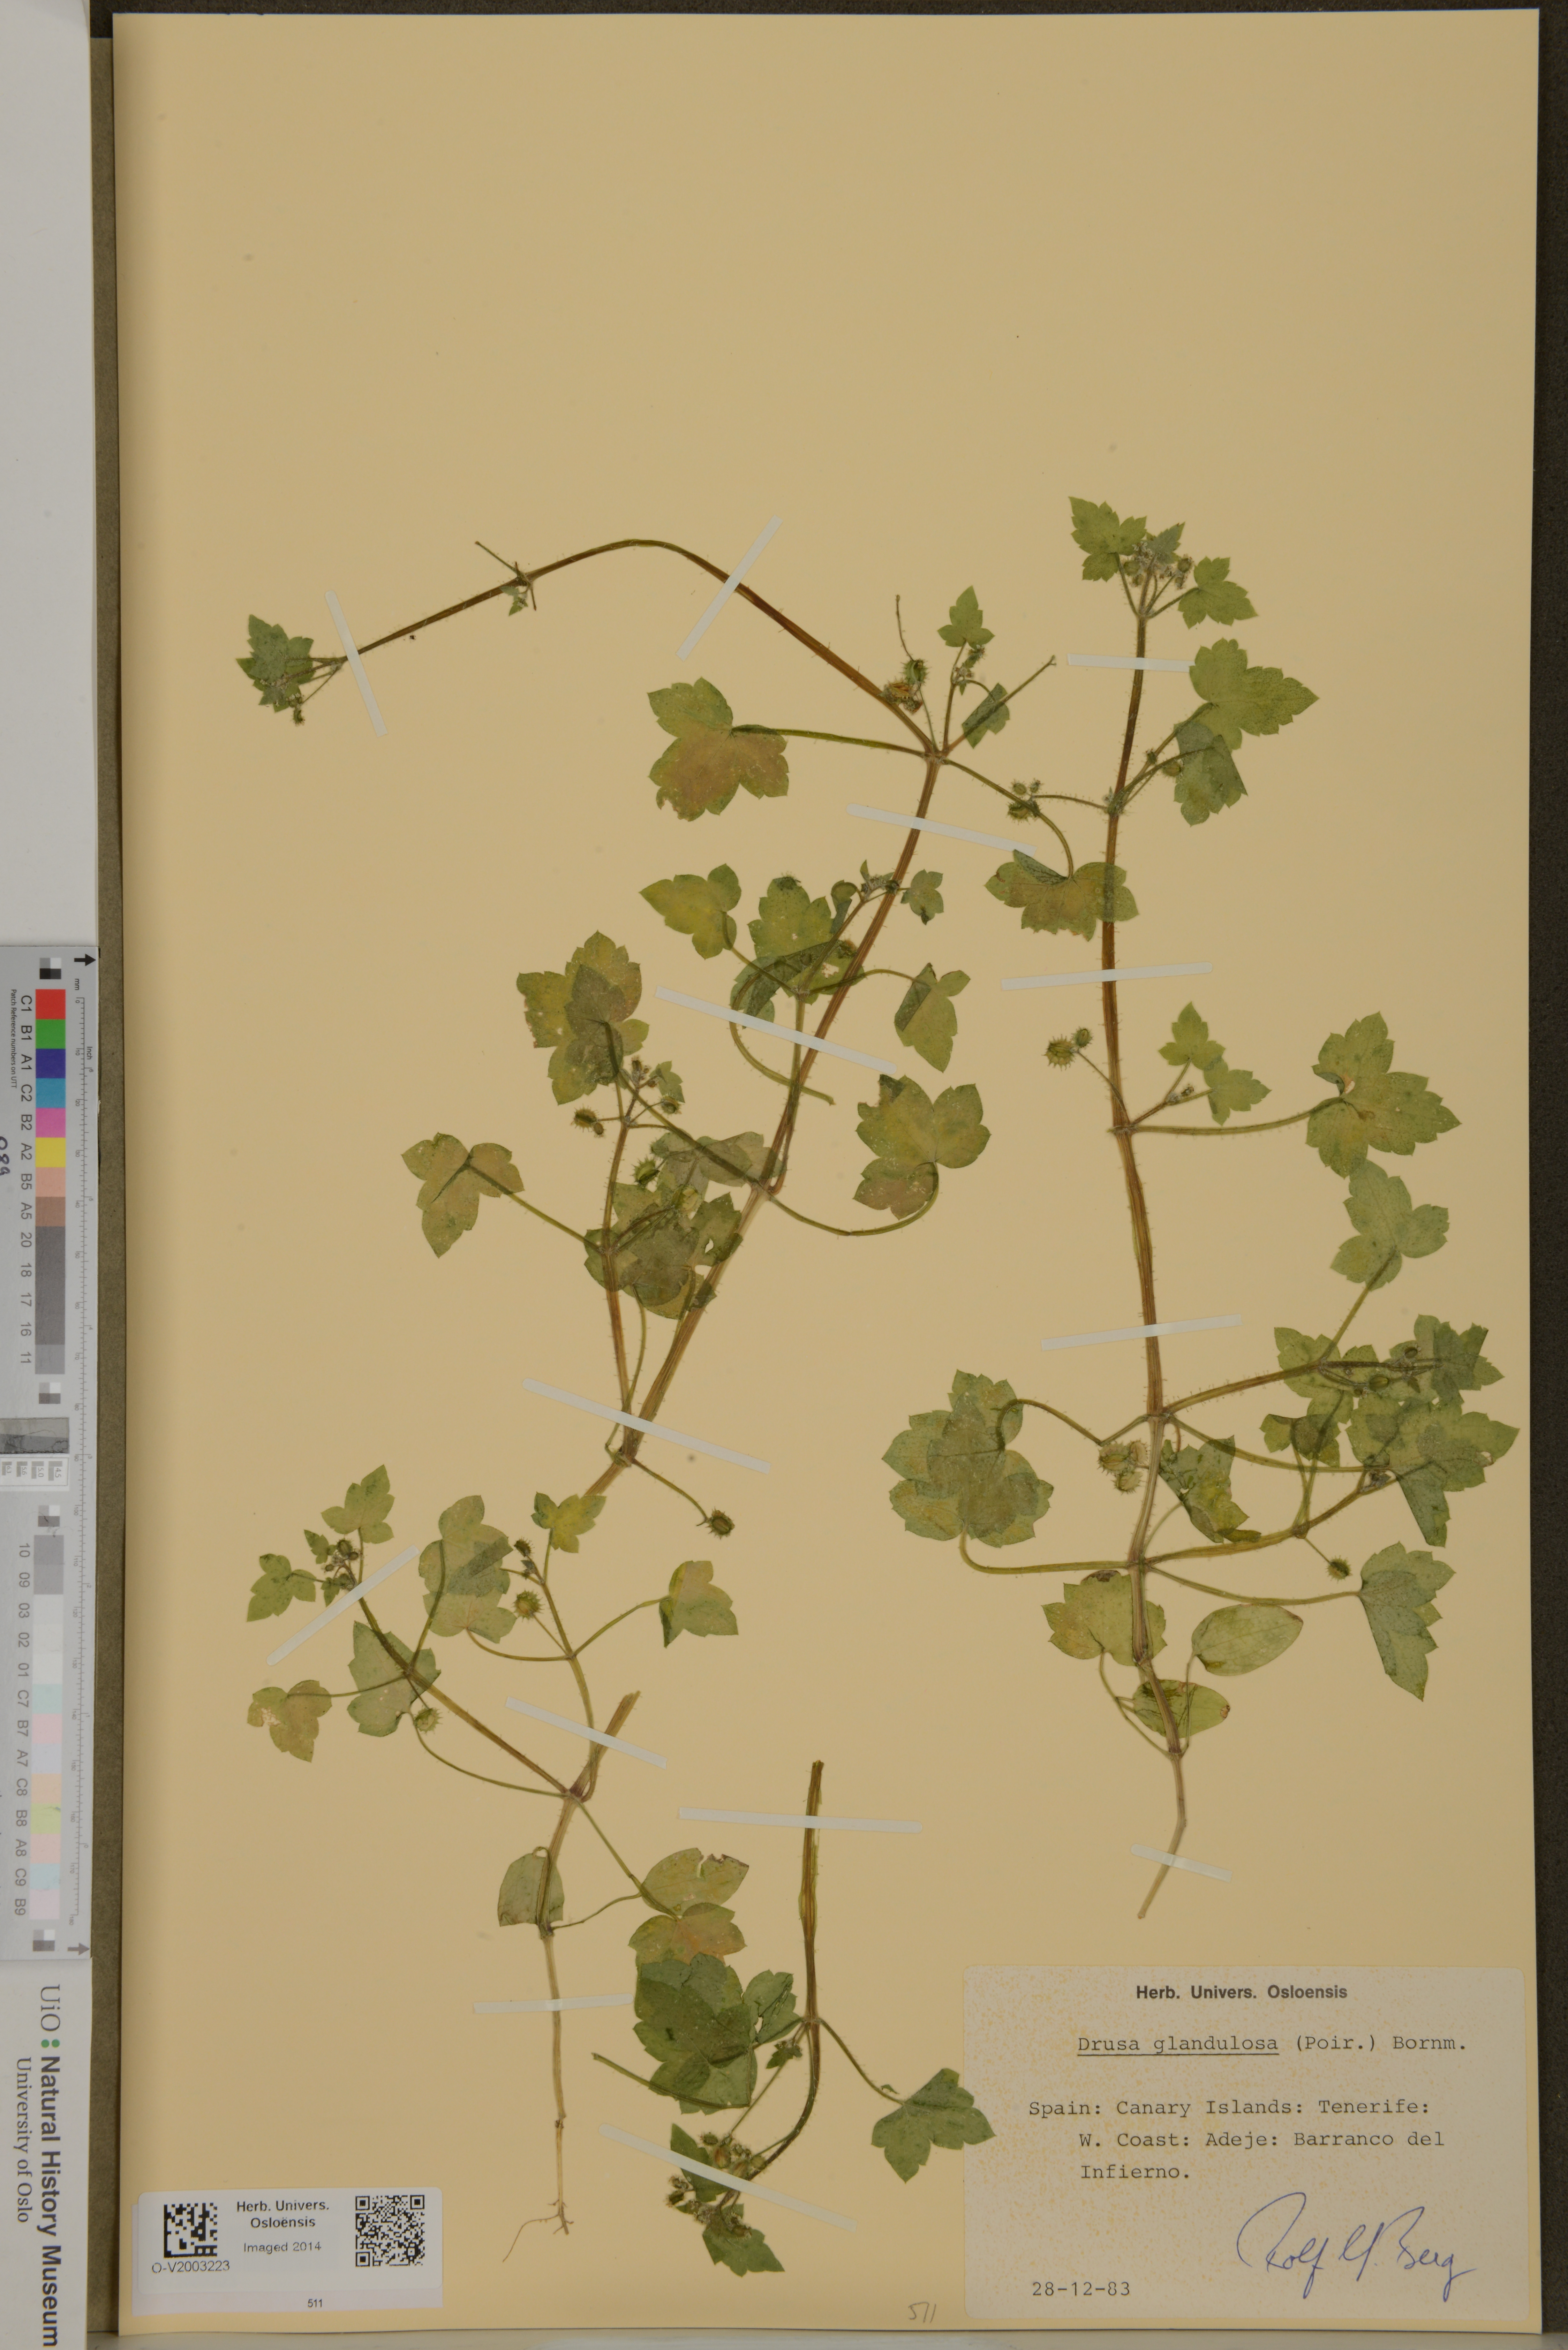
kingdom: Plantae
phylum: Tracheophyta
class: Magnoliopsida
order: Apiales
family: Apiaceae
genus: Drusa
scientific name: Drusa glandulosa
